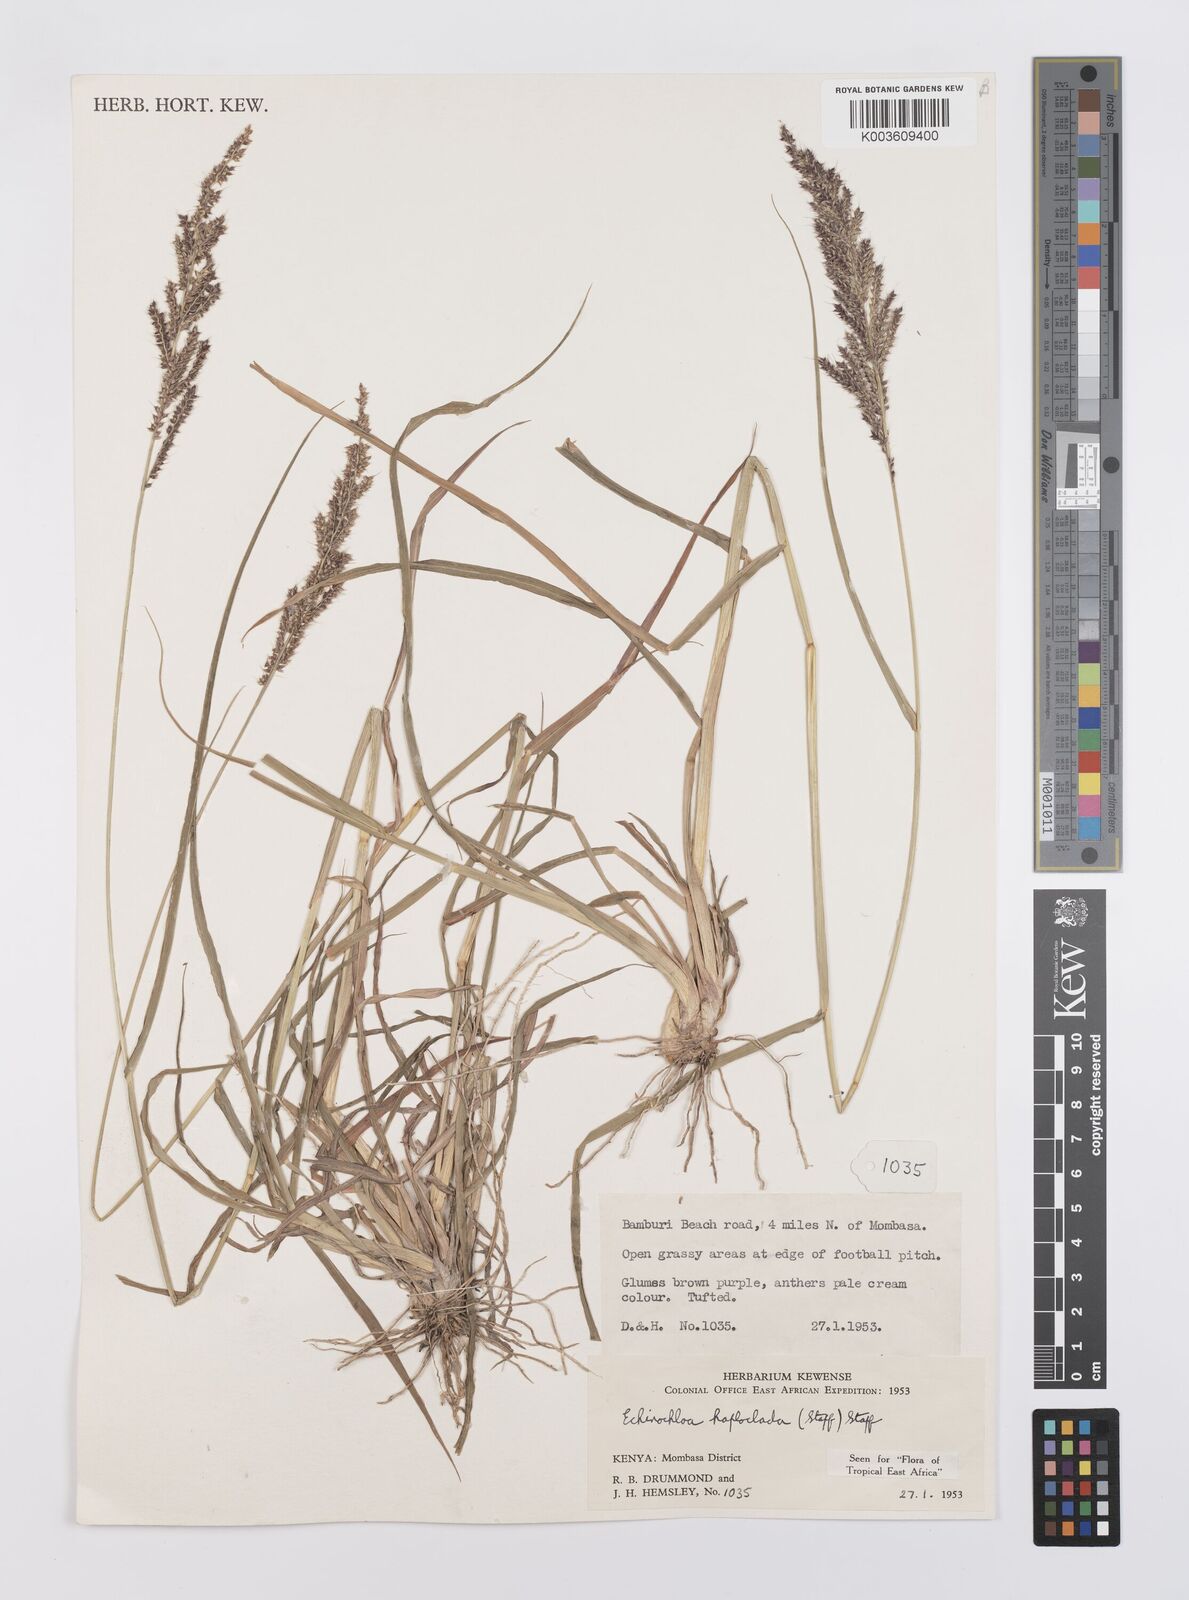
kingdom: Plantae
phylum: Tracheophyta
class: Liliopsida
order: Poales
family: Poaceae
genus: Echinochloa
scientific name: Echinochloa haploclada
